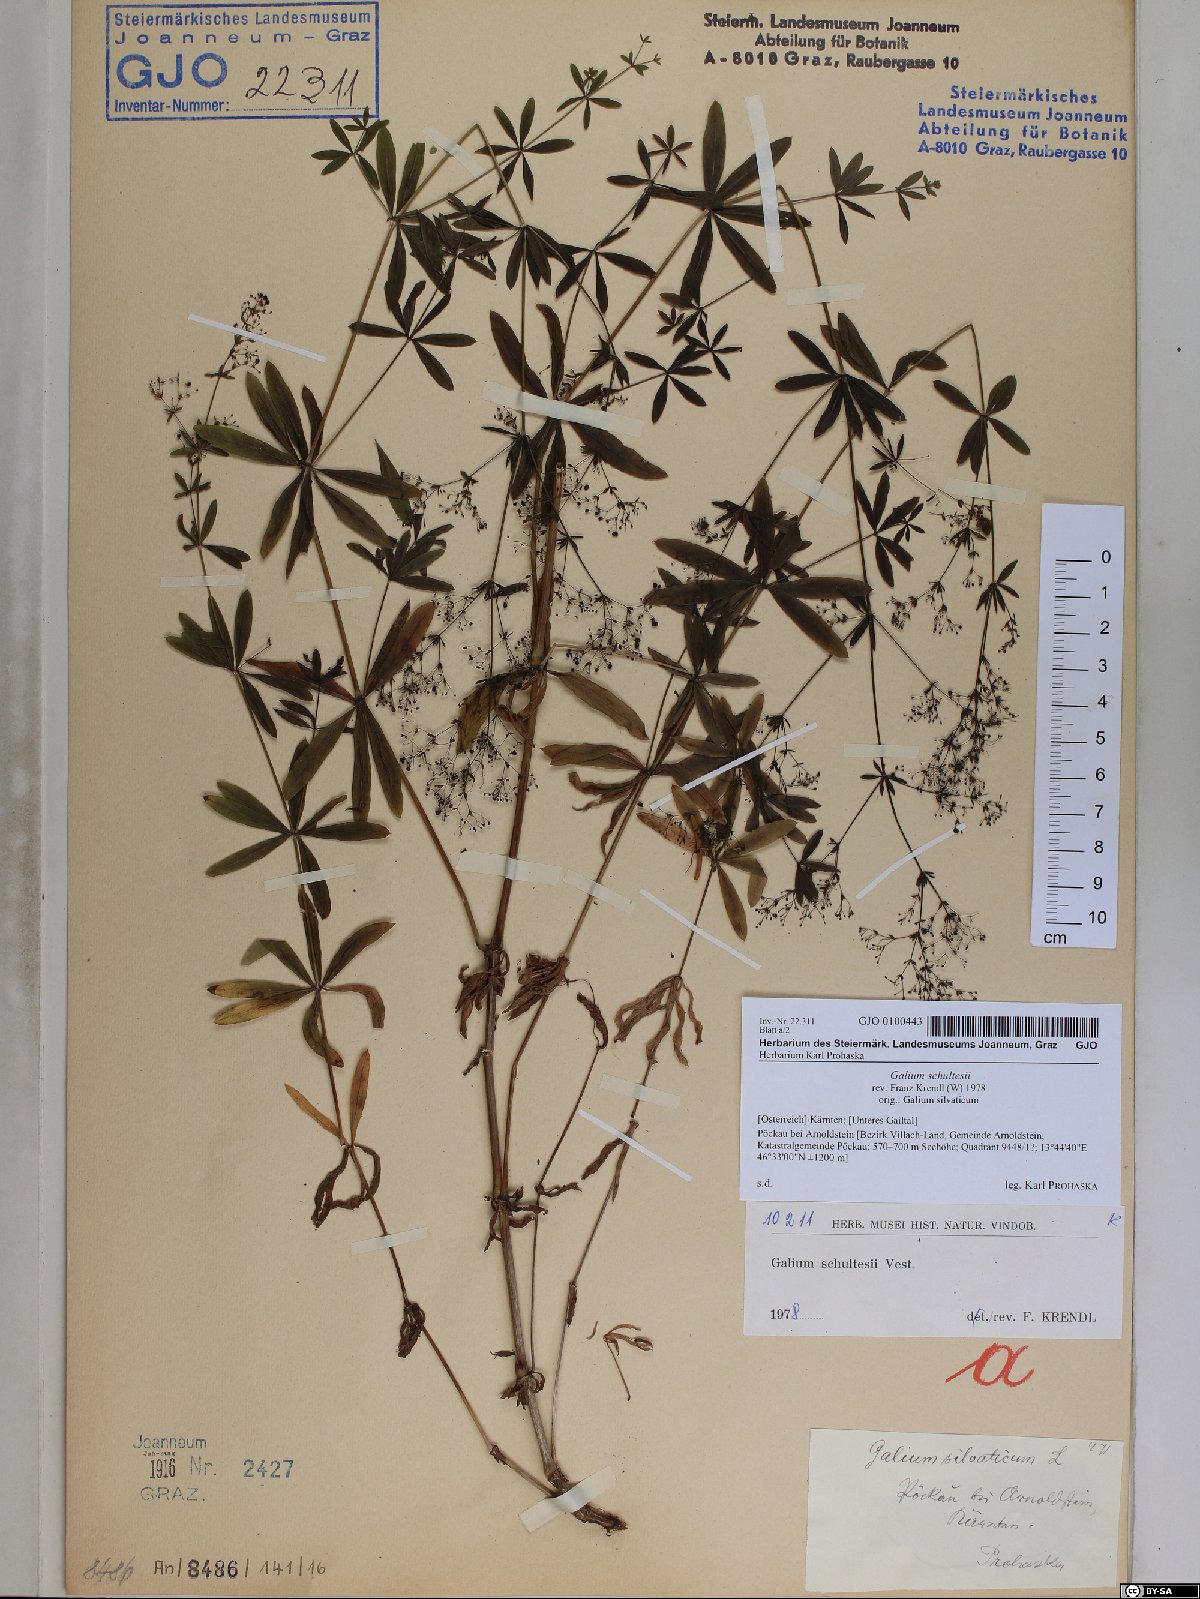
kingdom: Plantae
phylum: Tracheophyta
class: Magnoliopsida
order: Gentianales
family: Rubiaceae
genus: Galium
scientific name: Galium intermedium
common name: Bedstraw
